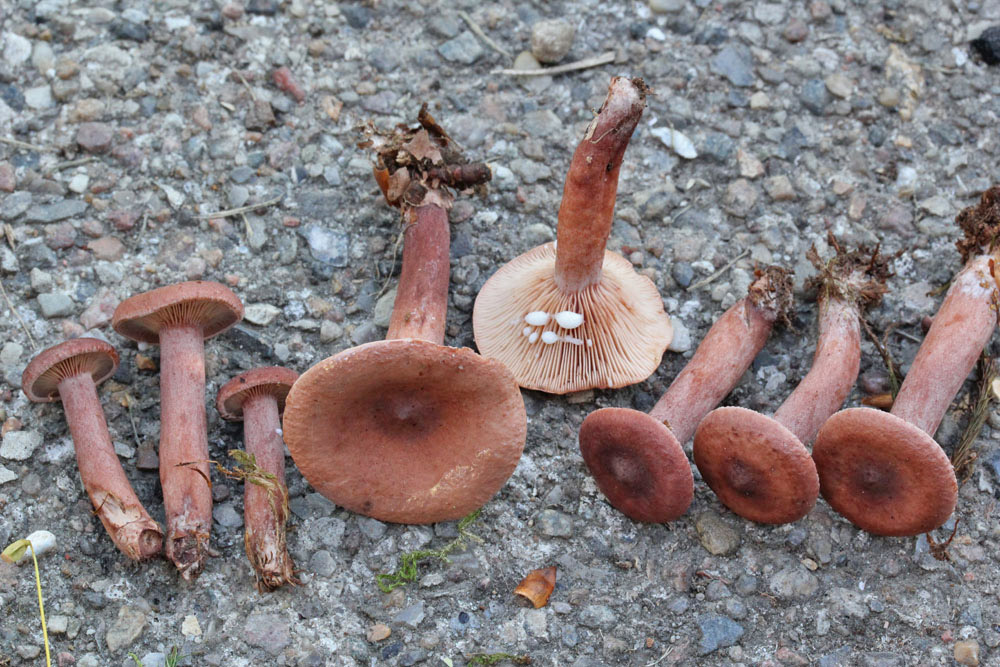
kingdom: Fungi
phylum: Basidiomycota
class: Agaricomycetes
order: Russulales
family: Russulaceae
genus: Lactarius
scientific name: Lactarius camphoratus
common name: kamfer-mælkehat
